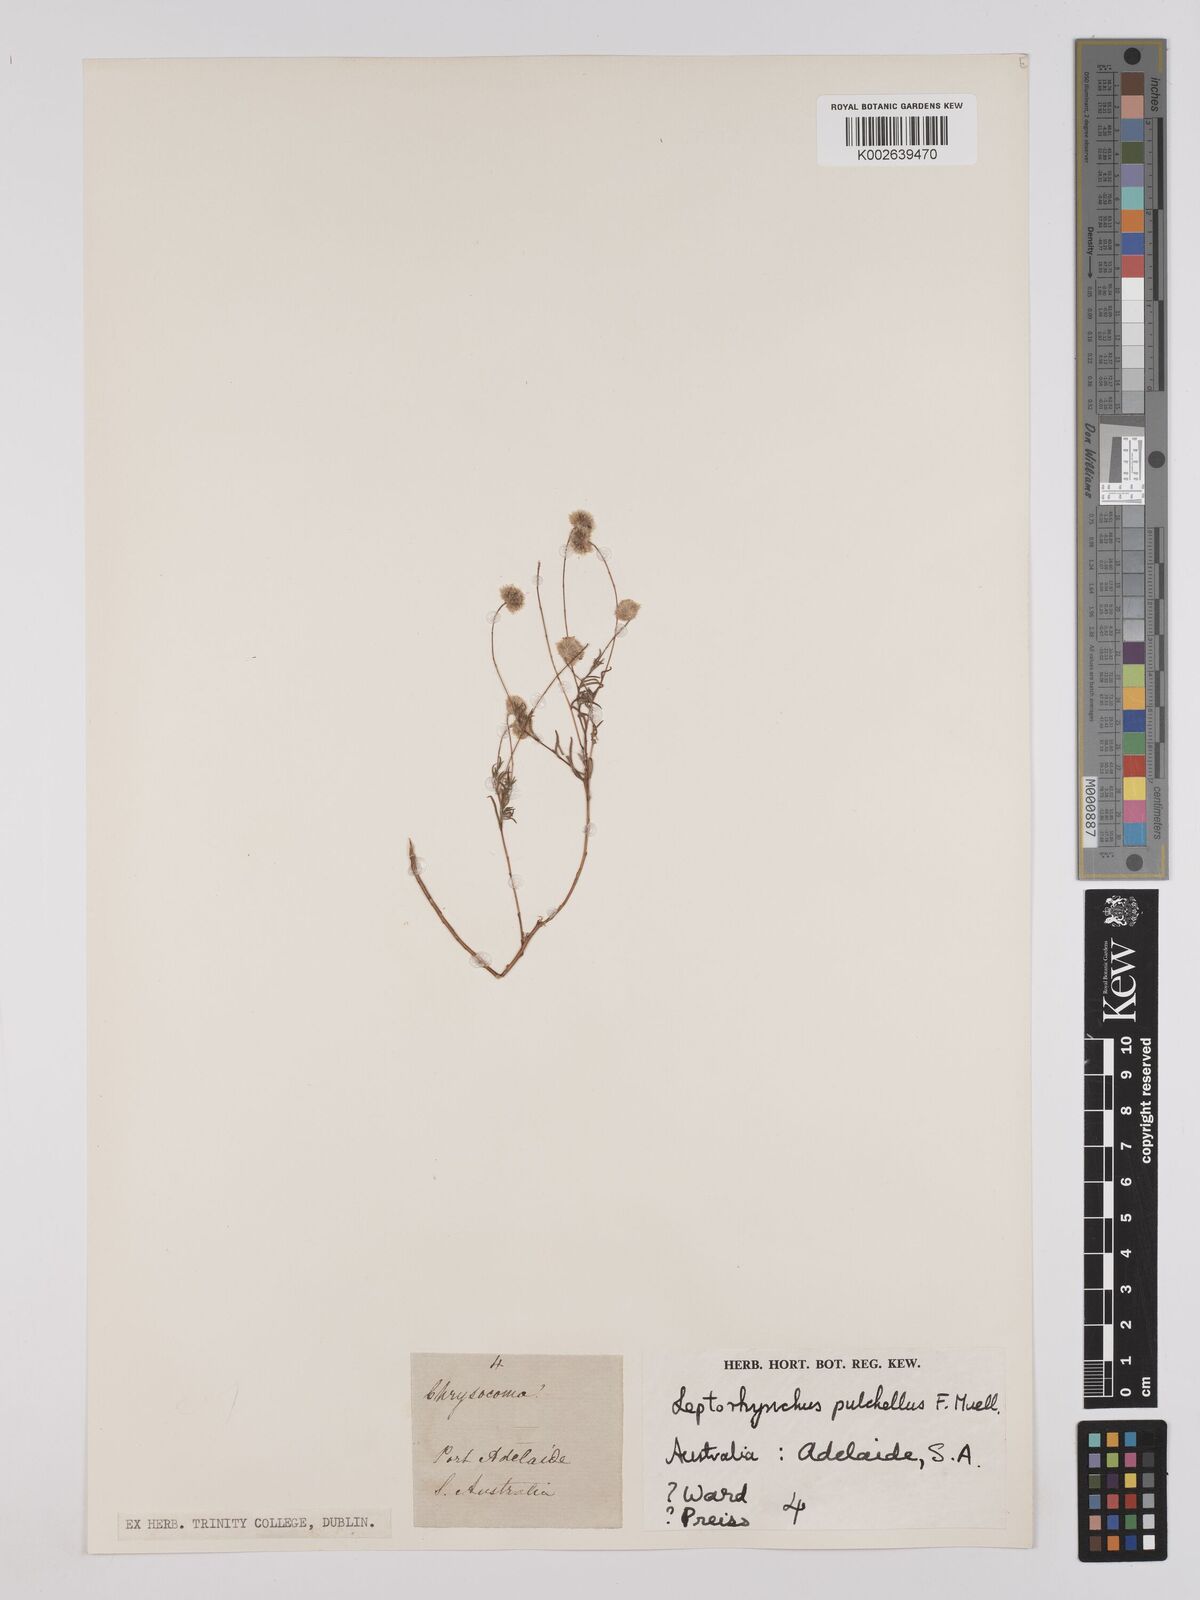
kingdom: Plantae
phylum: Tracheophyta
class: Magnoliopsida
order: Asterales
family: Asteraceae
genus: Leptorhynchos
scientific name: Leptorhynchos tetrachaetus
